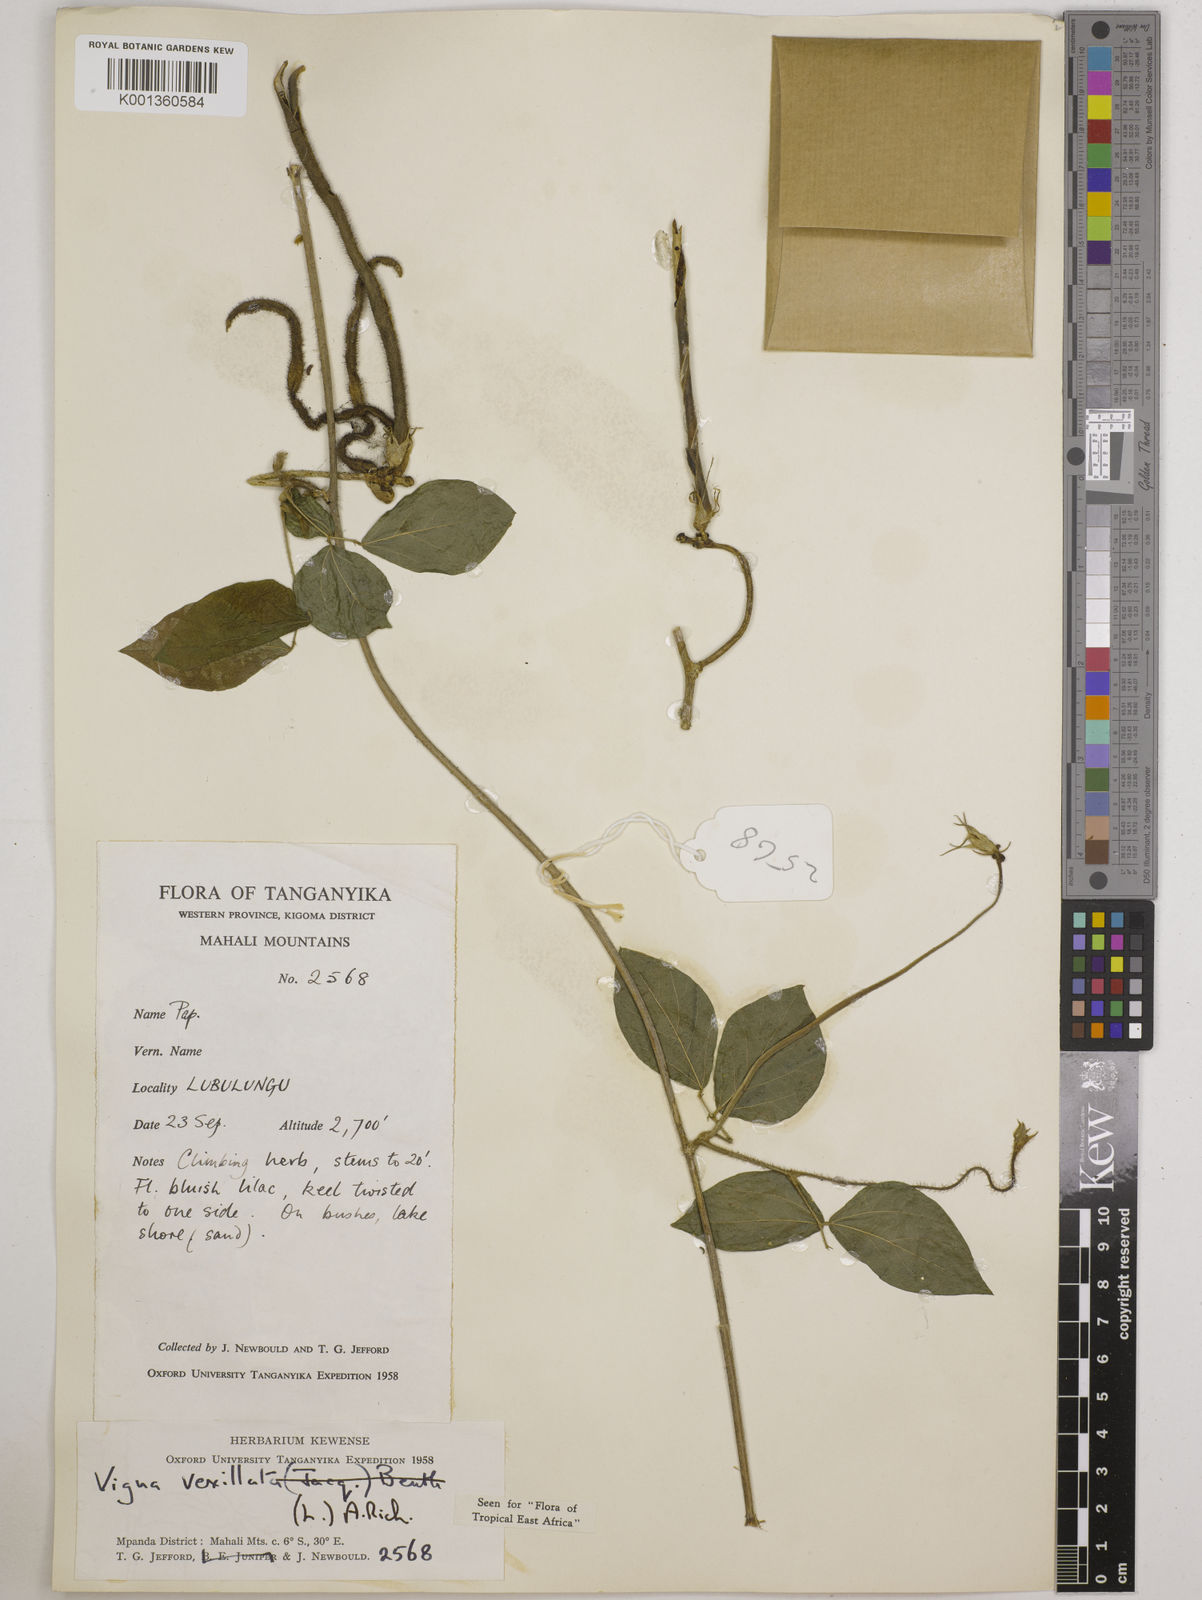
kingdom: Plantae
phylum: Tracheophyta
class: Magnoliopsida
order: Fabales
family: Fabaceae
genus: Vigna
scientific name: Vigna vexillata
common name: Zombi pea
